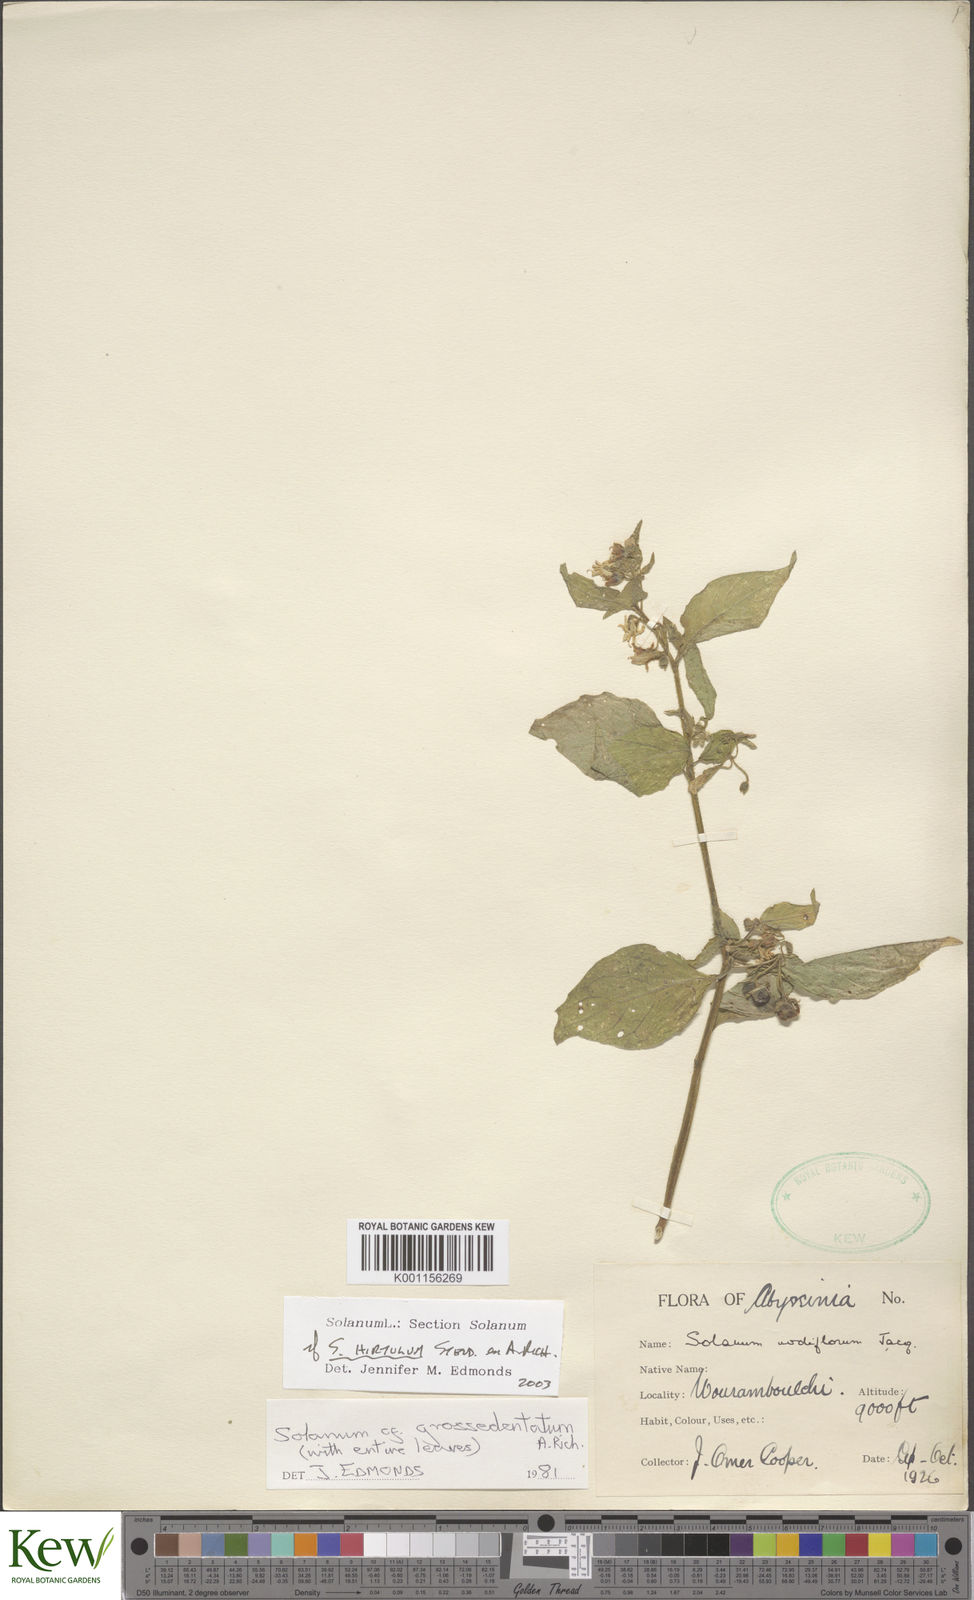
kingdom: Plantae
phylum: Tracheophyta
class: Magnoliopsida
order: Solanales
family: Solanaceae
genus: Solanum
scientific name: Solanum tarderemotum
